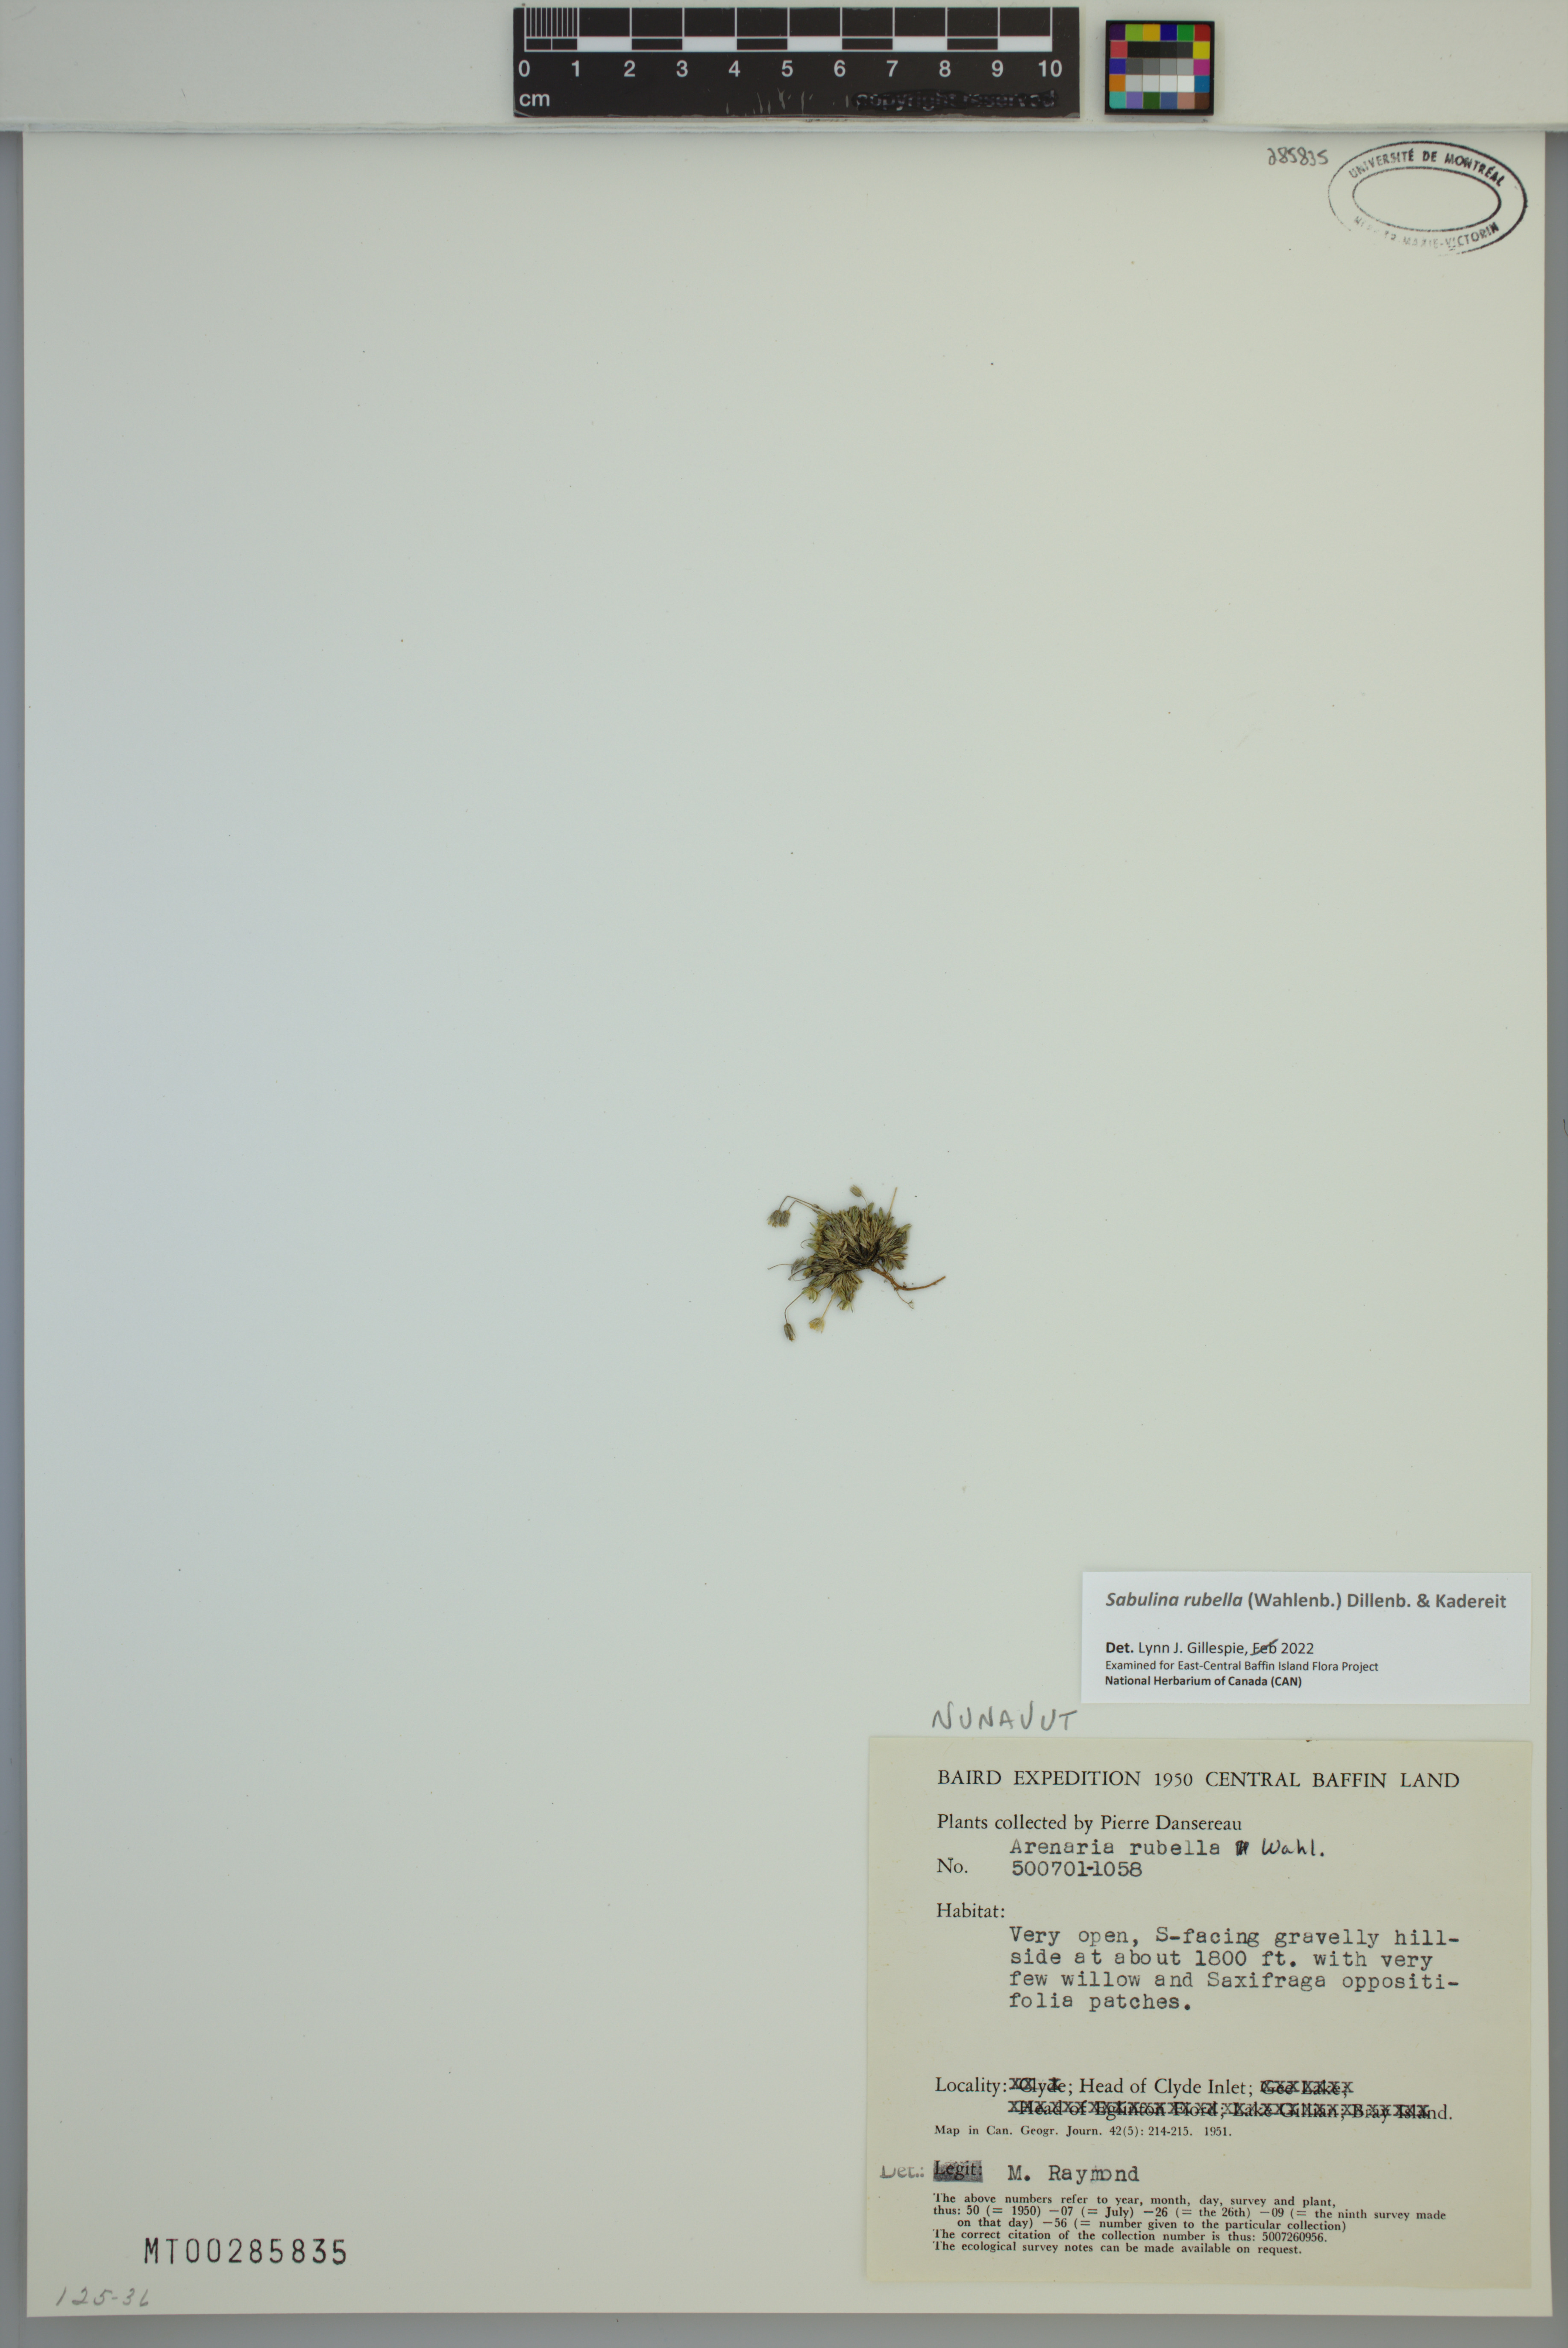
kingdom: Plantae
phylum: Tracheophyta
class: Magnoliopsida
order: Caryophyllales
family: Caryophyllaceae
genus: Sabulina
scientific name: Sabulina rubella
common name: Beautiful sandwort
